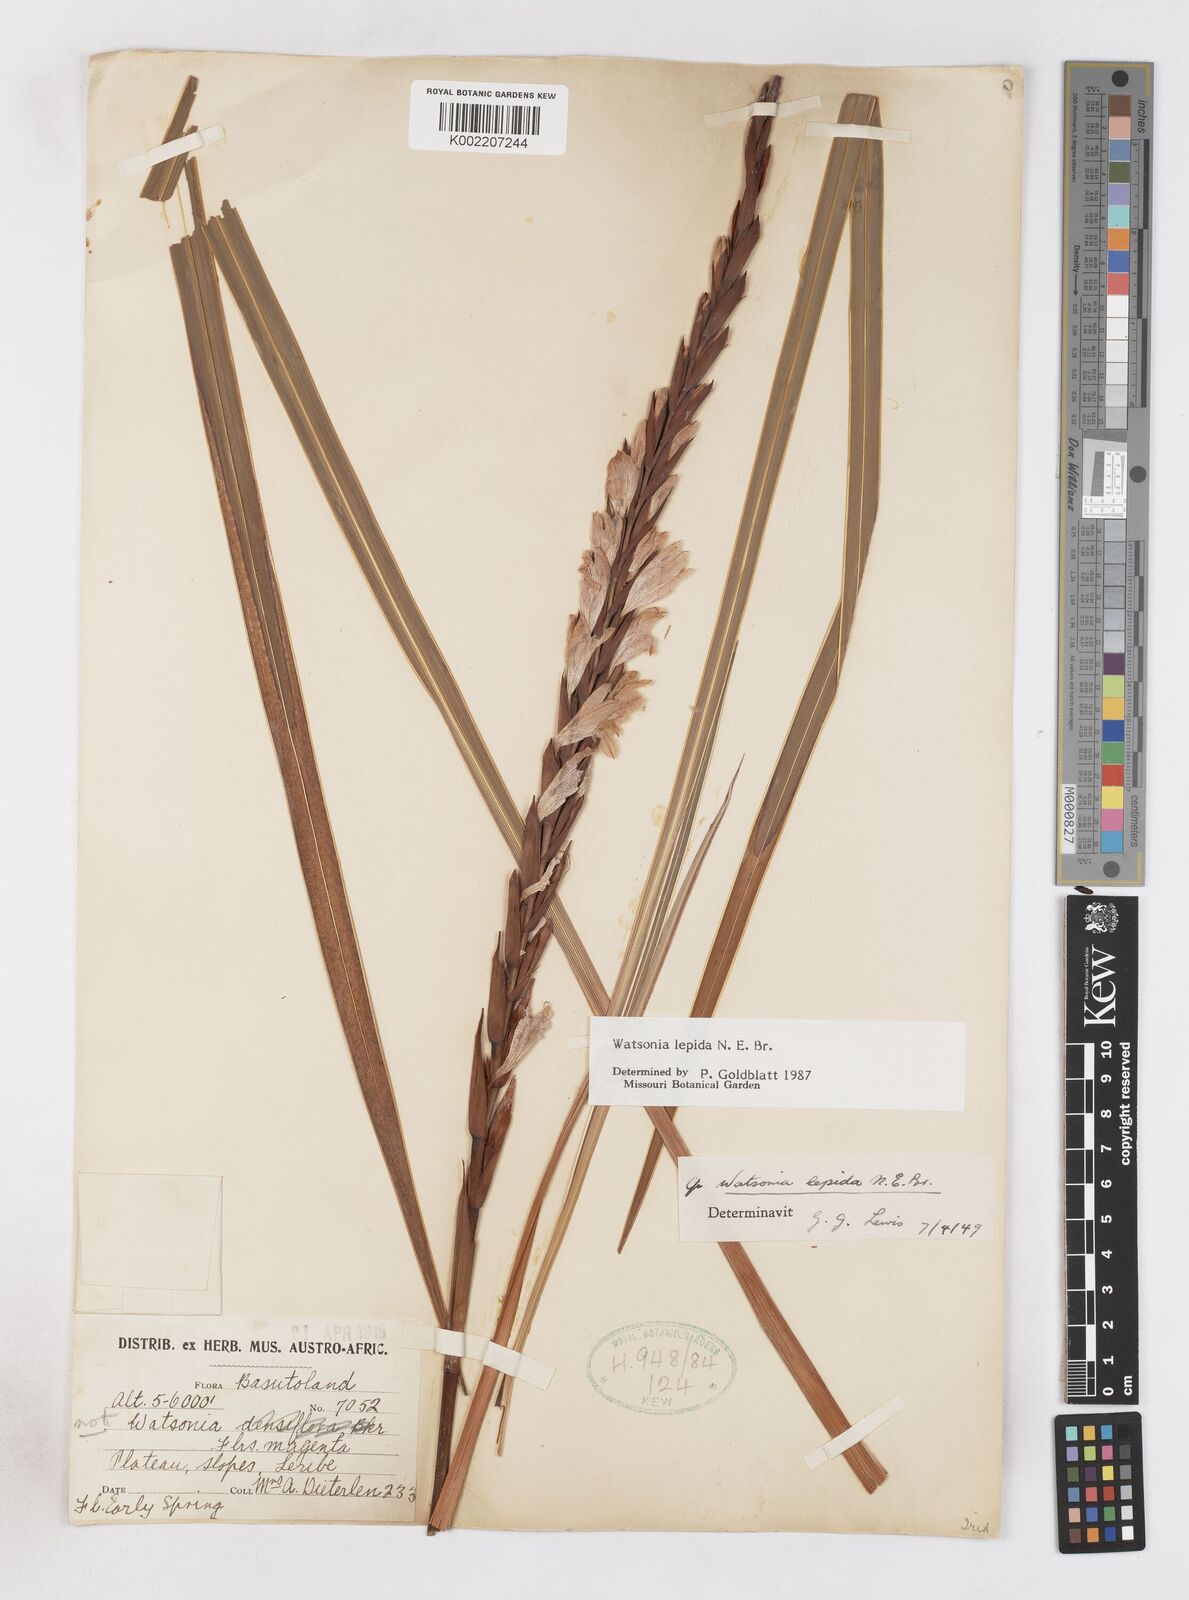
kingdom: Plantae
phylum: Tracheophyta
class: Liliopsida
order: Asparagales
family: Iridaceae
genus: Watsonia
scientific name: Watsonia lepida
